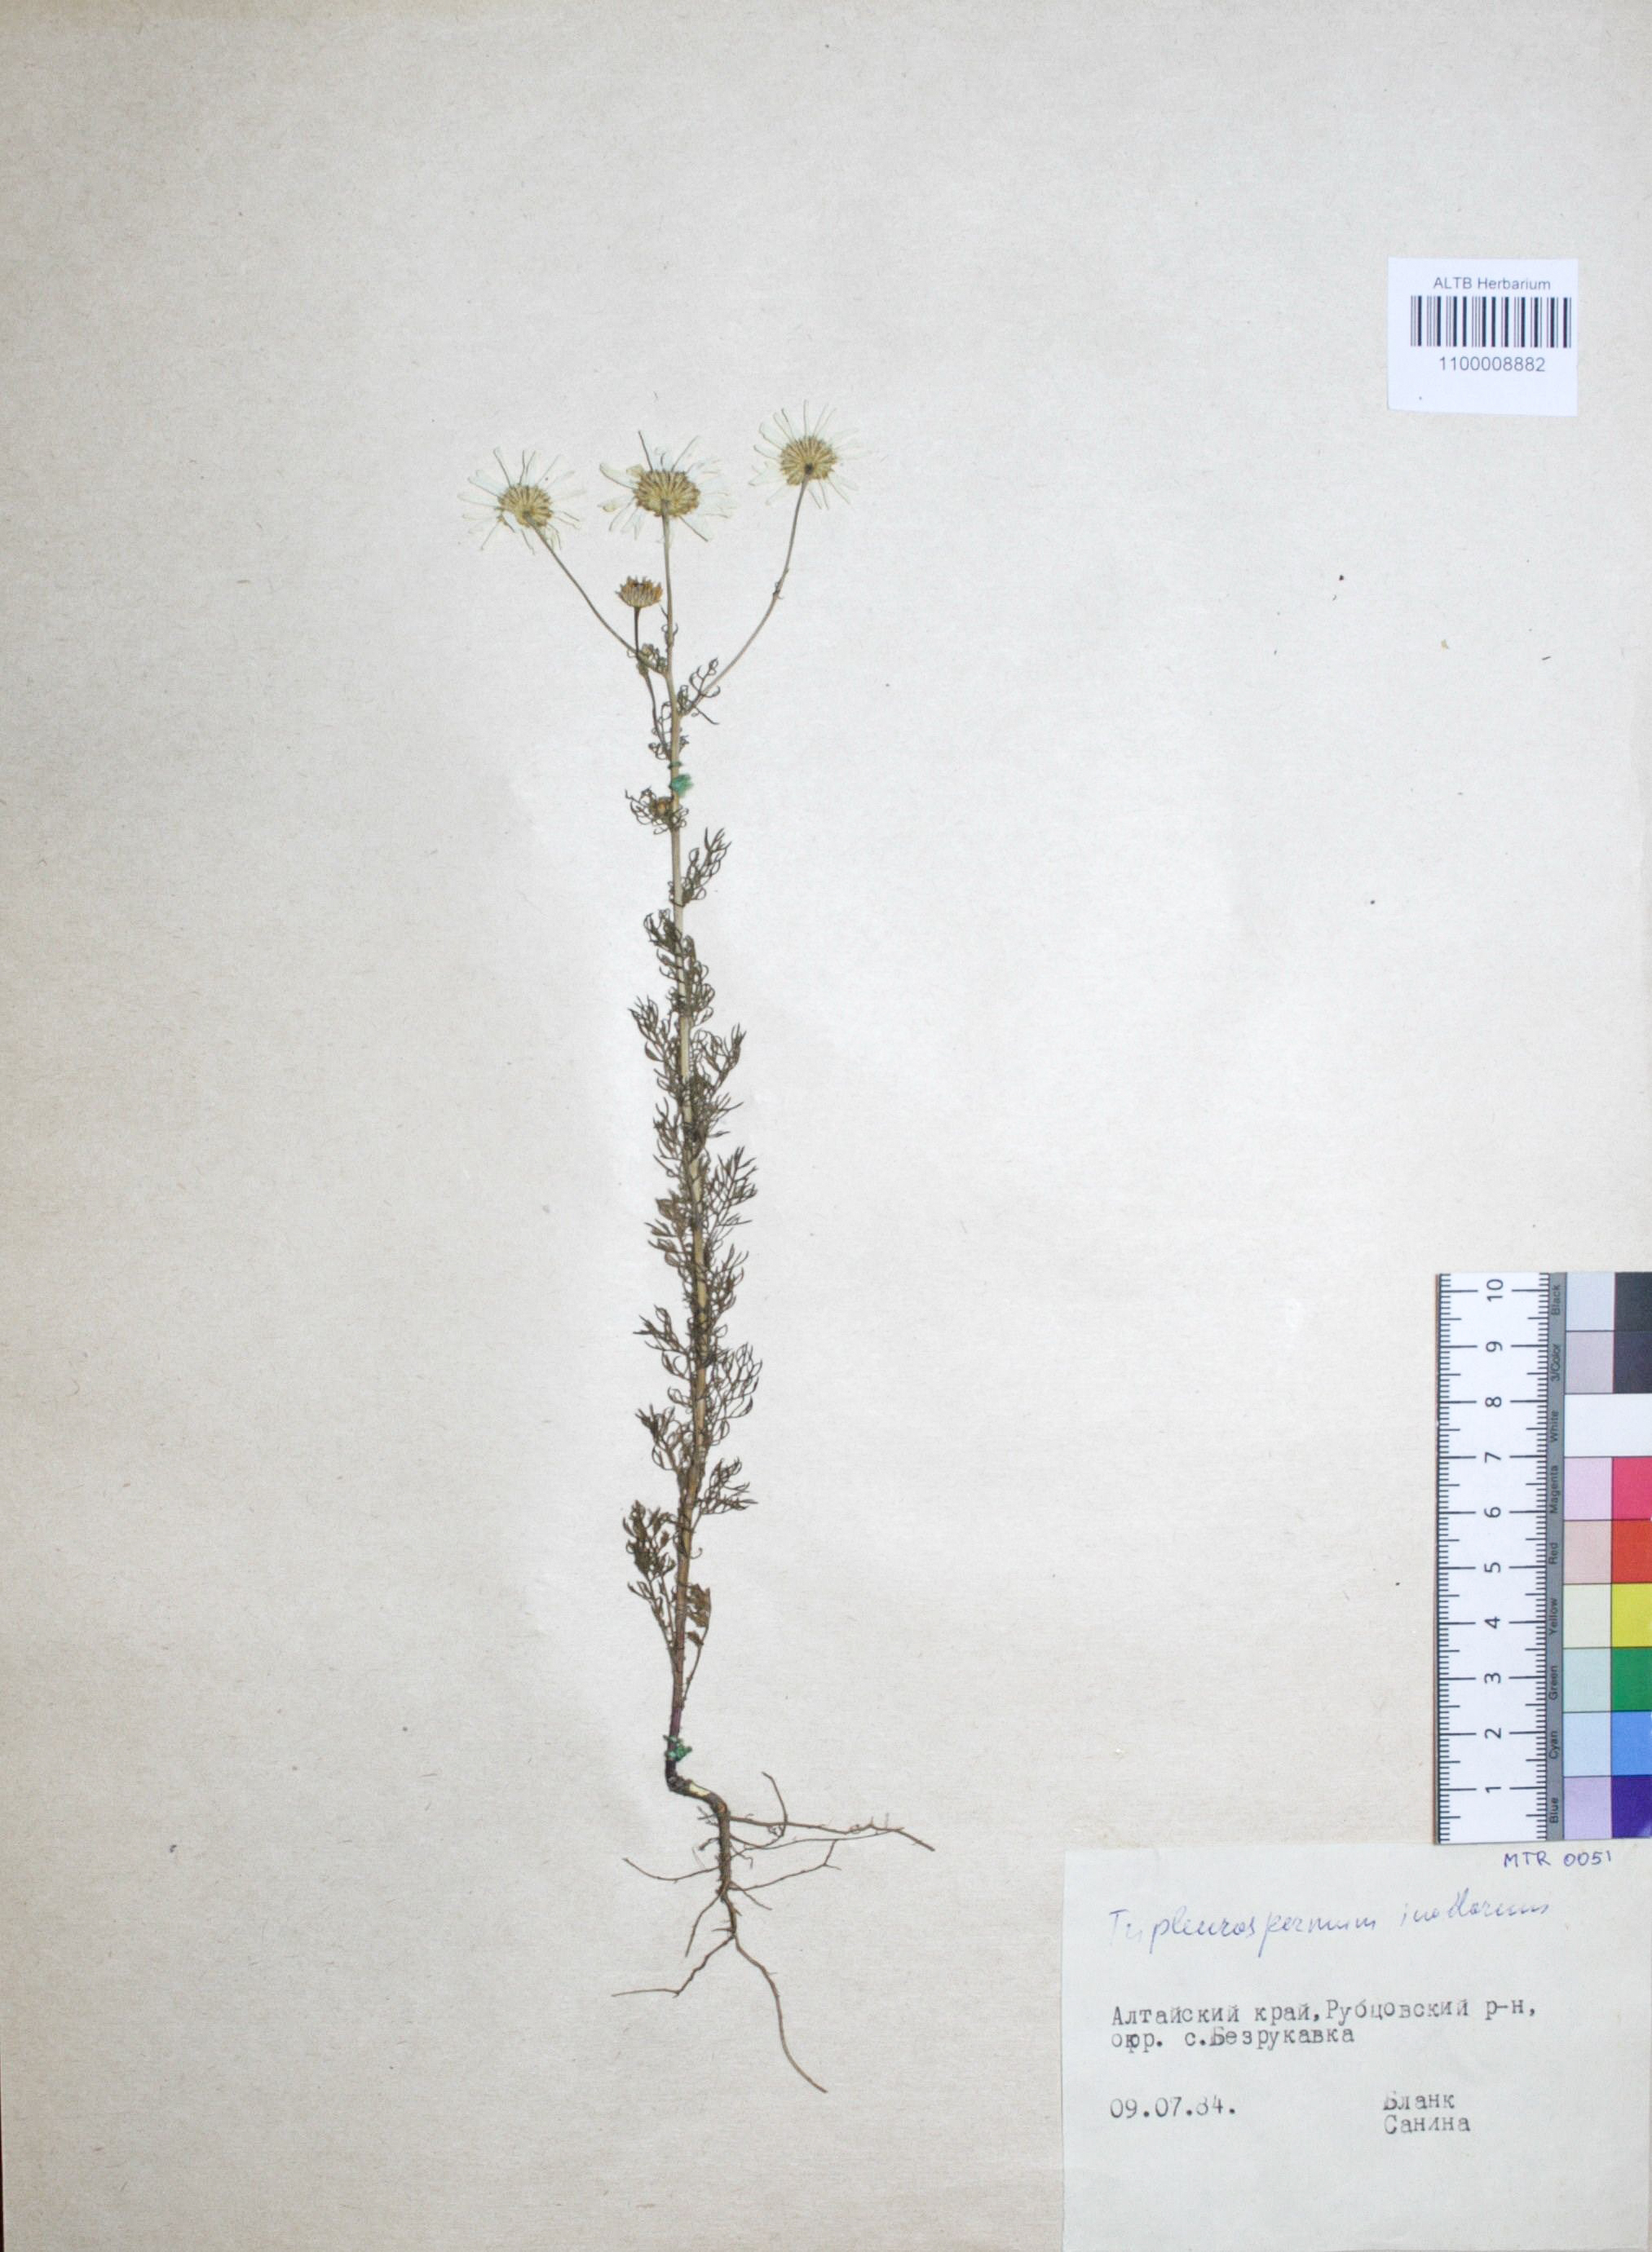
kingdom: Plantae
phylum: Tracheophyta
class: Magnoliopsida
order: Asterales
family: Asteraceae
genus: Tripleurospermum
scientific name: Tripleurospermum inodorum
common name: Scentless mayweed
